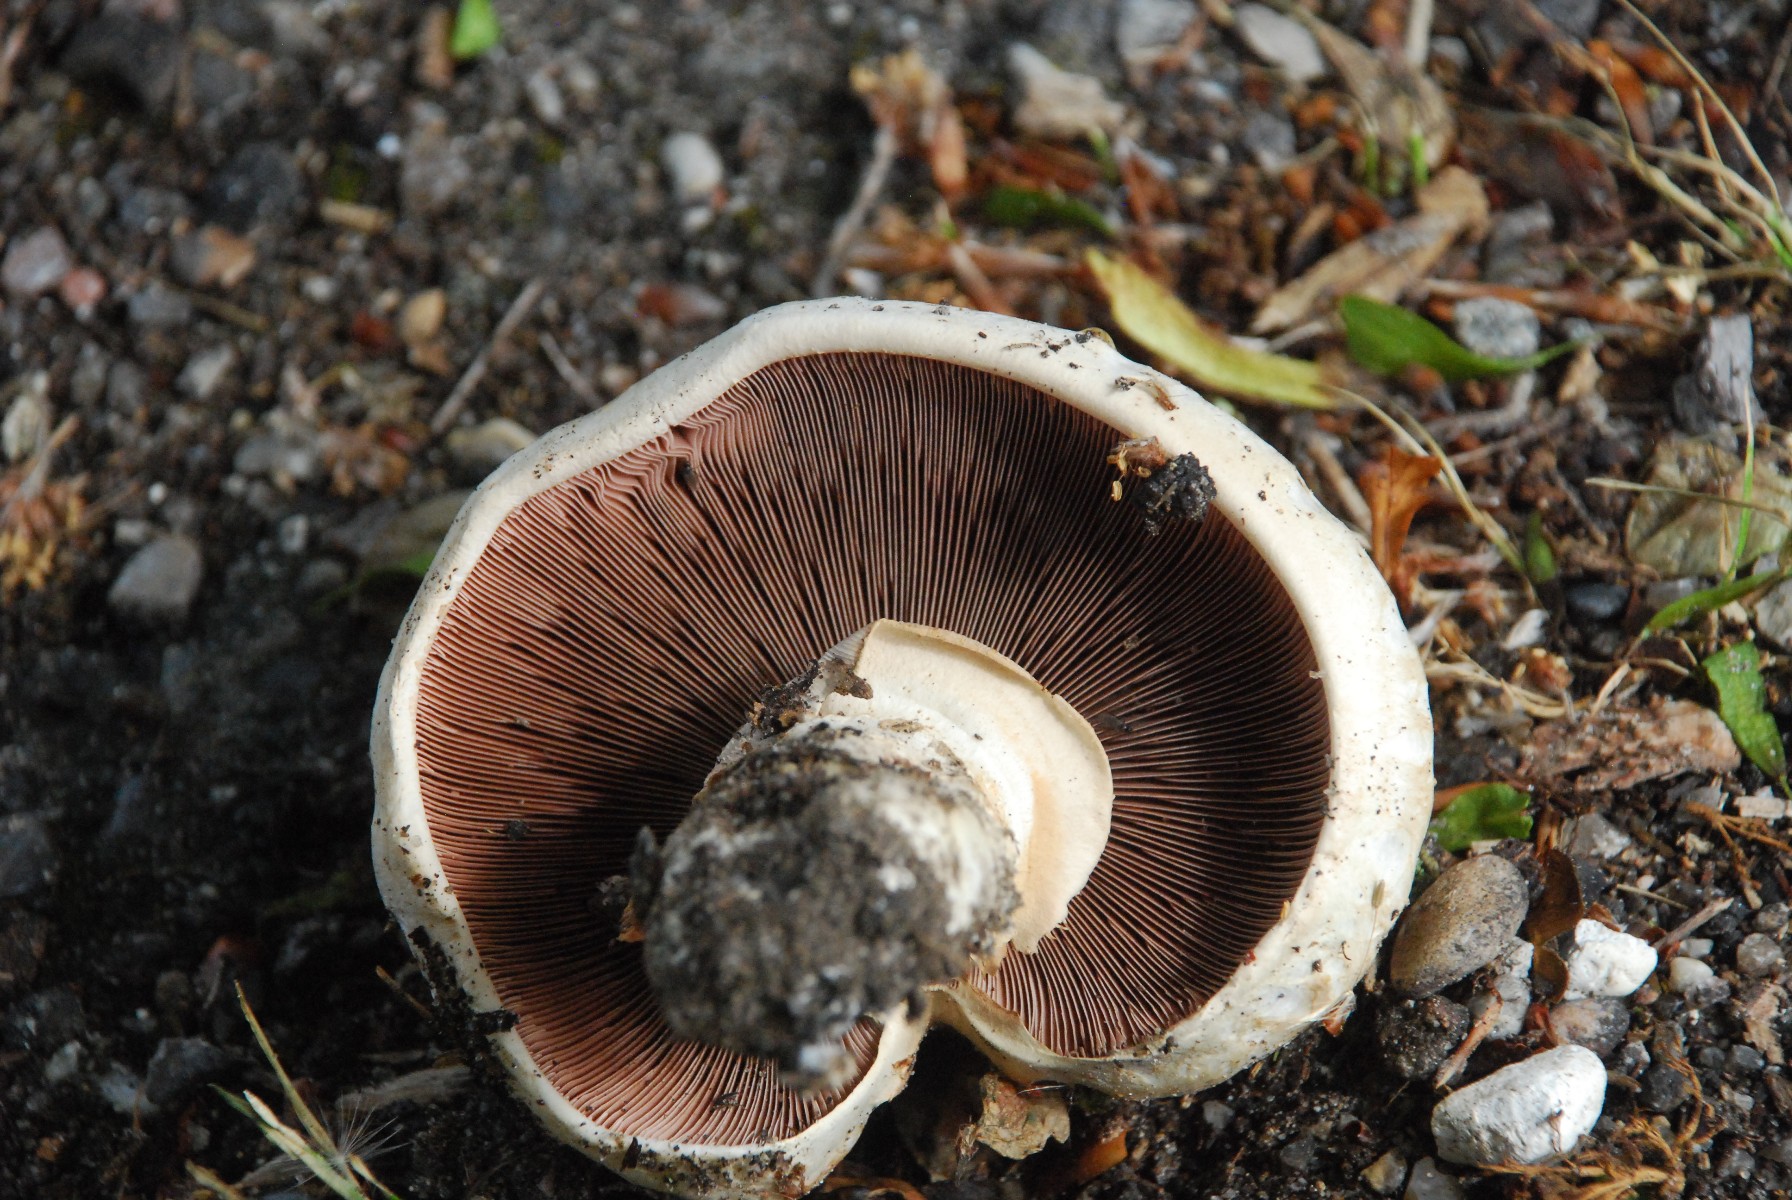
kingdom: Fungi
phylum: Basidiomycota
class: Agaricomycetes
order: Agaricales
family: Agaricaceae
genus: Agaricus
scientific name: Agaricus bitorquis
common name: vej-champignon
